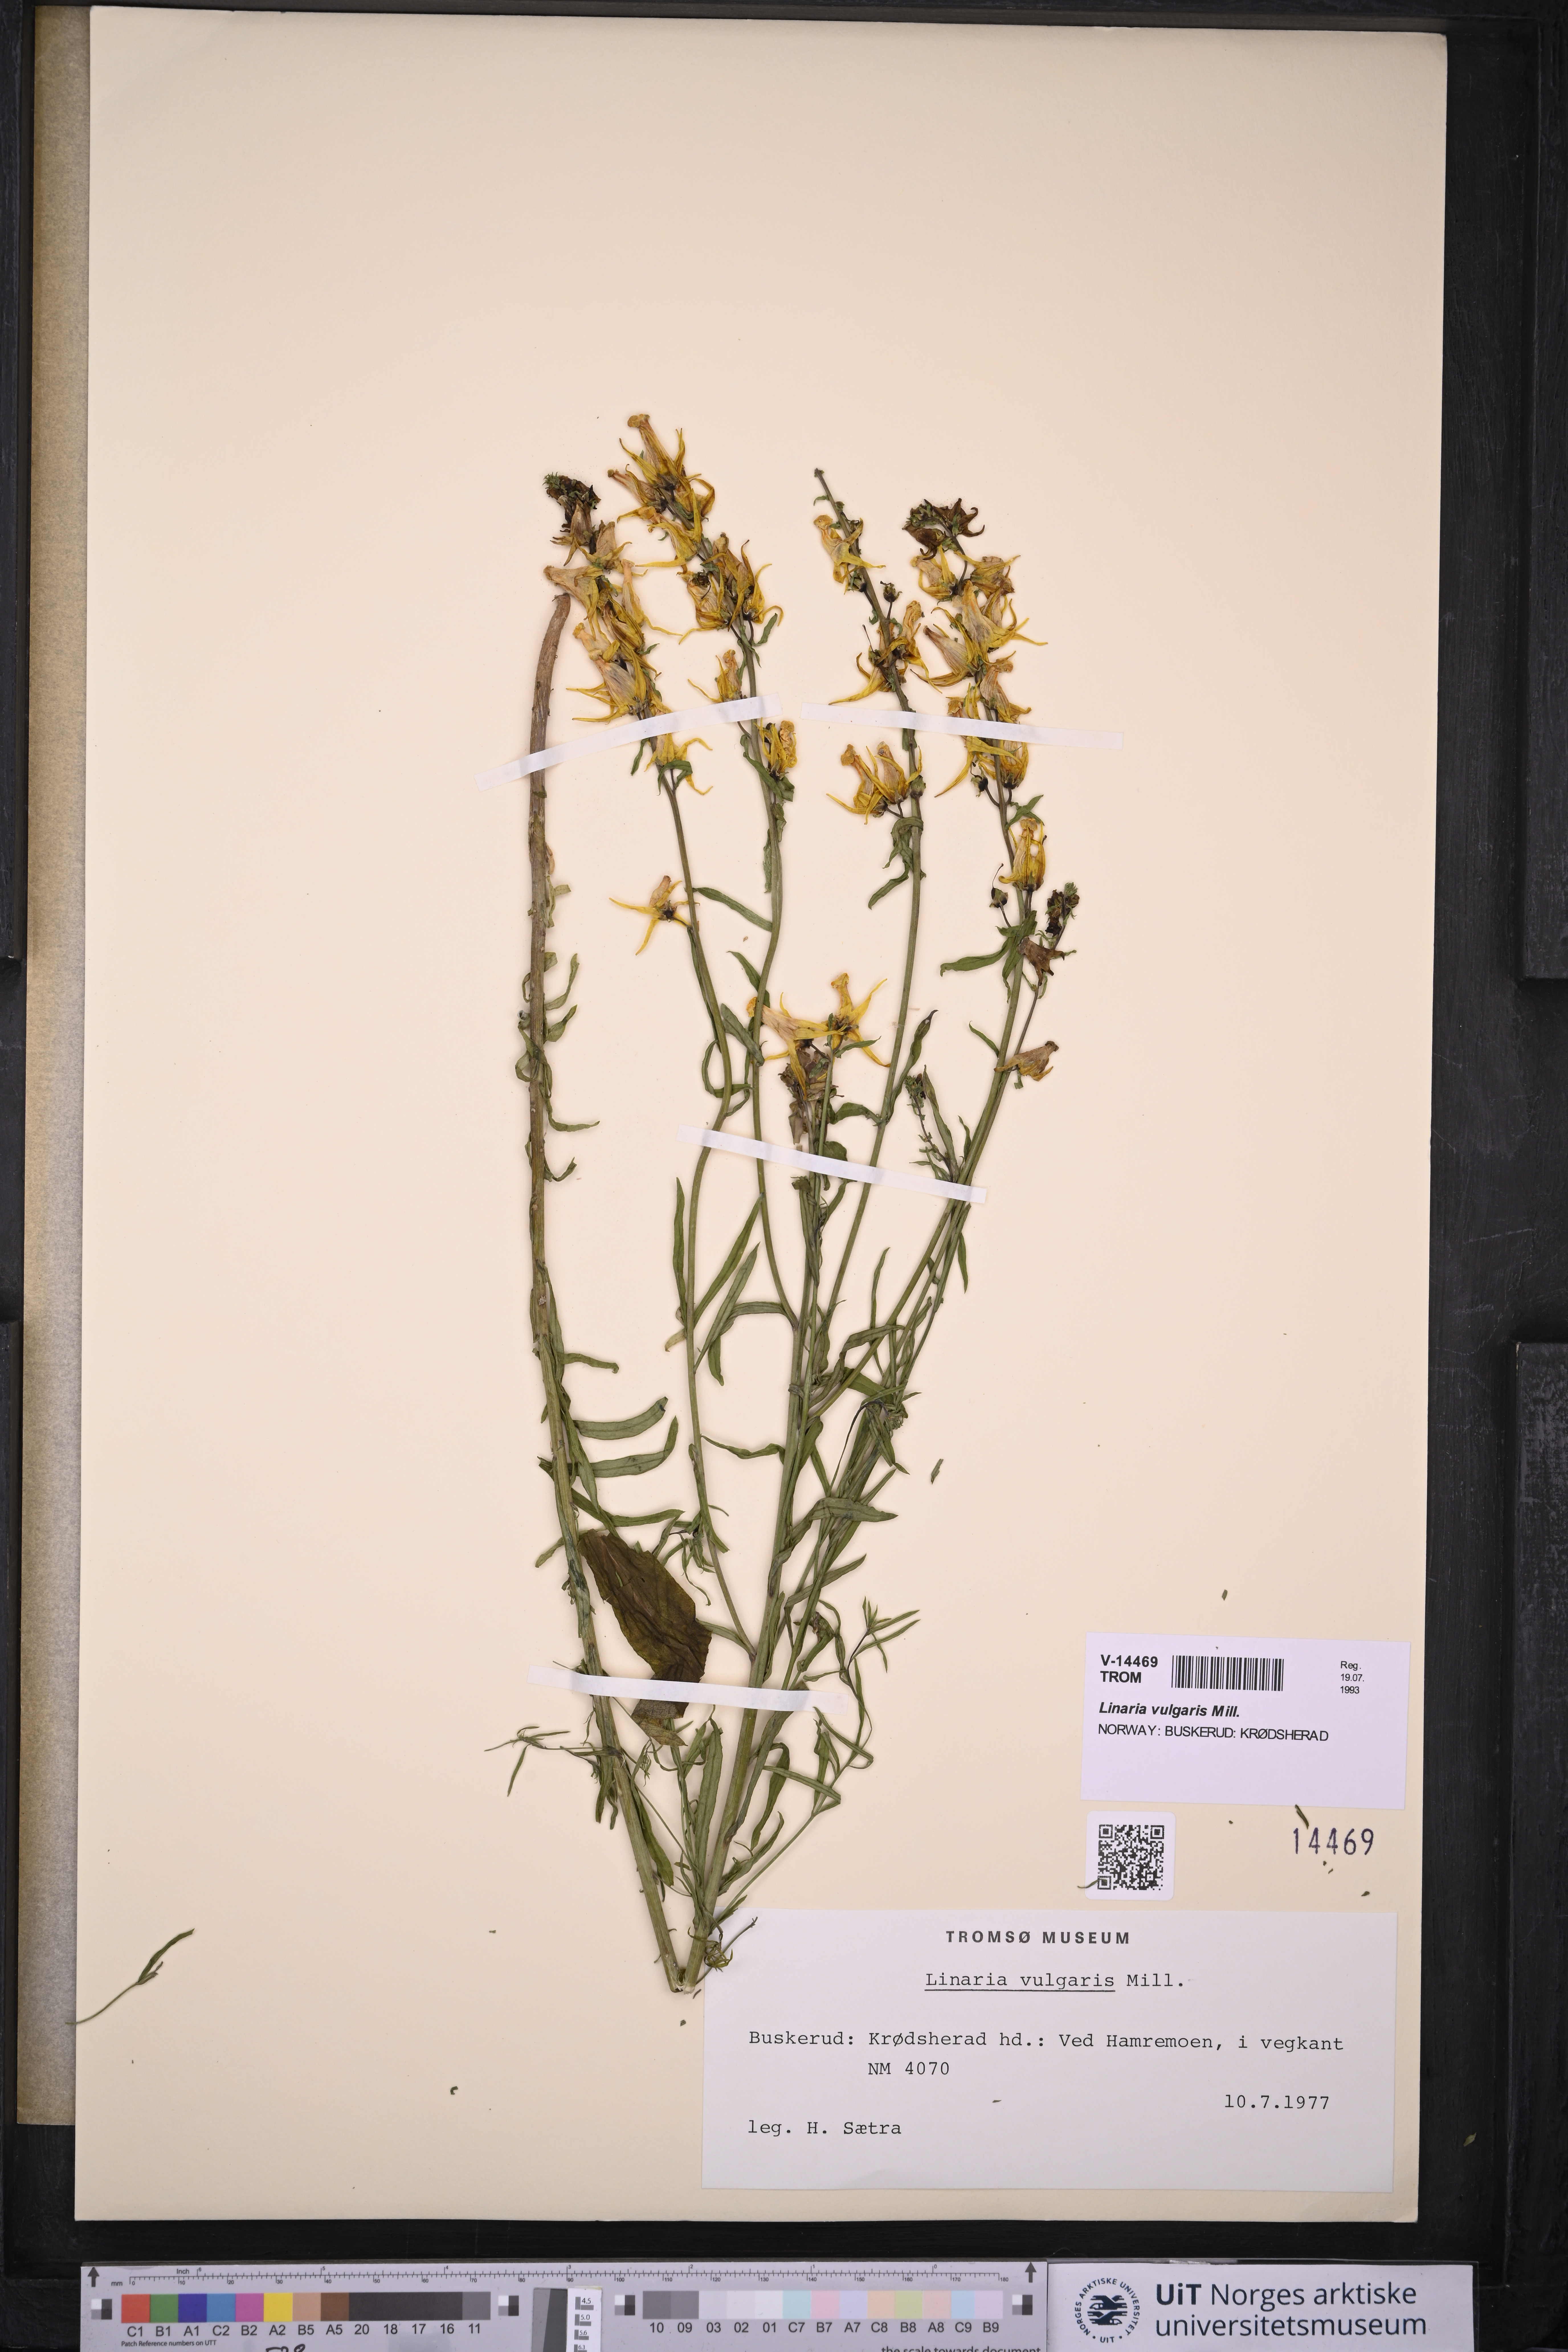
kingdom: Plantae
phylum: Tracheophyta
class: Magnoliopsida
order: Lamiales
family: Plantaginaceae
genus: Linaria
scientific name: Linaria vulgaris
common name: Butter and eggs
